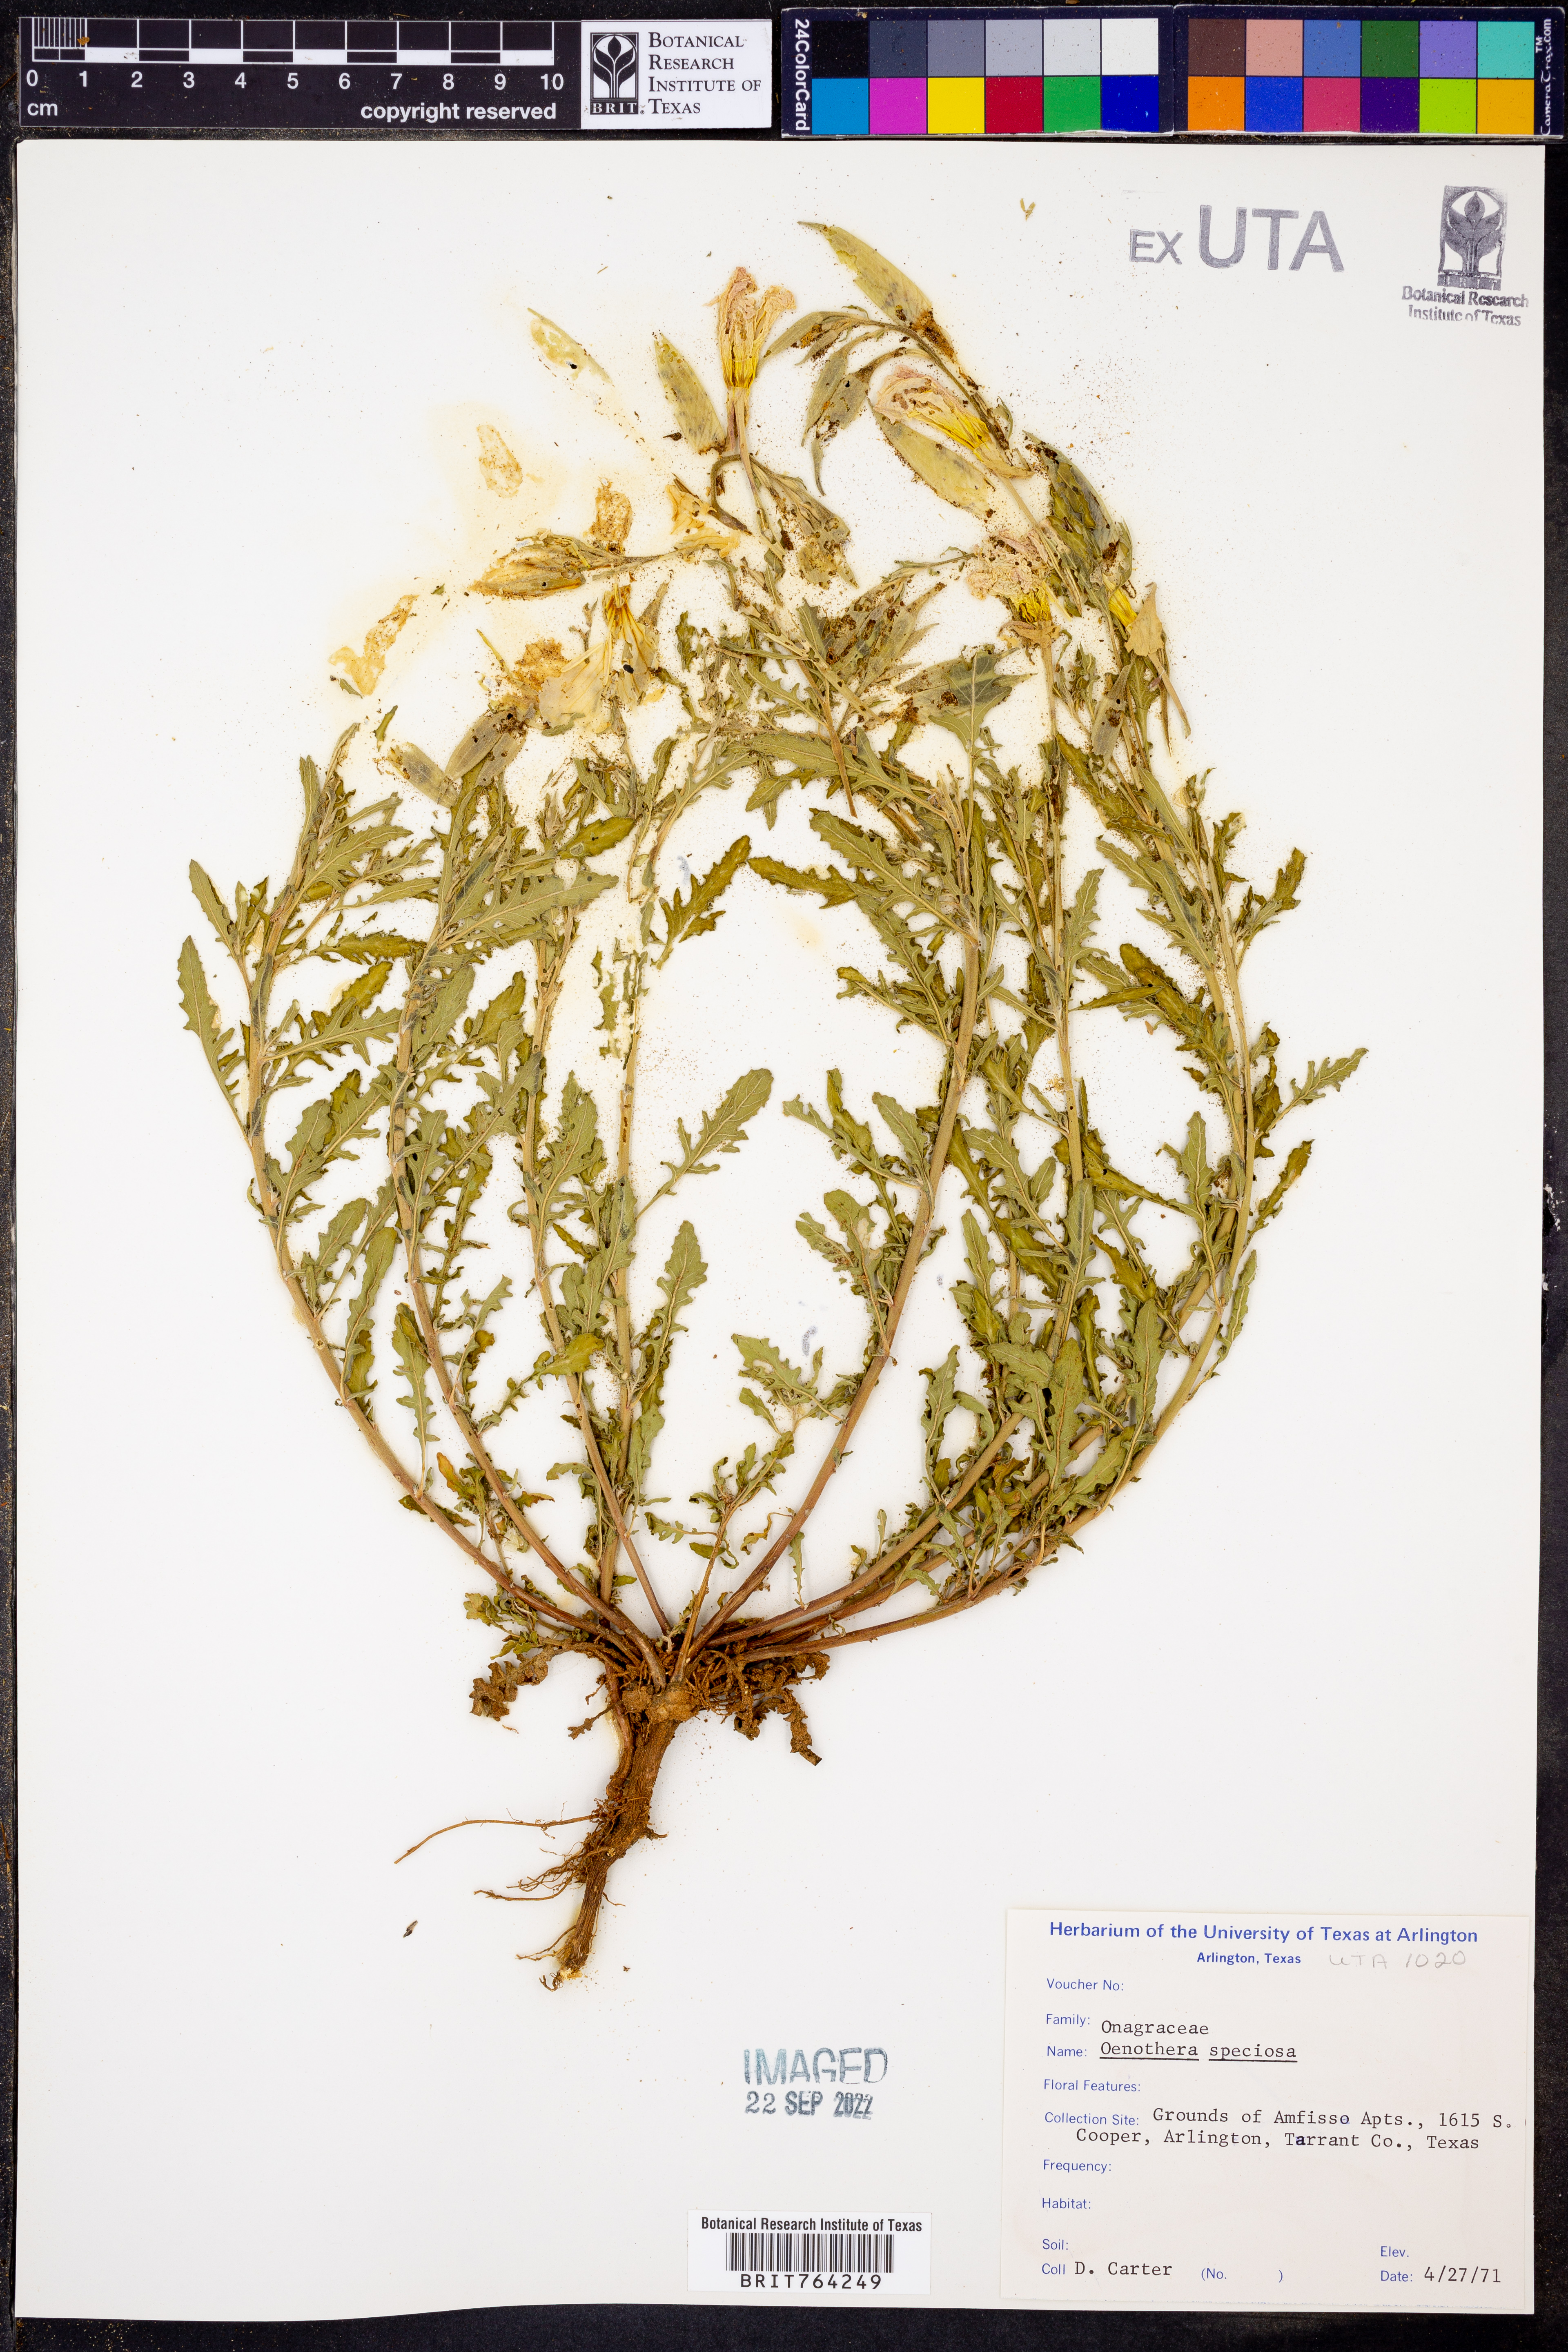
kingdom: Plantae
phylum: Tracheophyta
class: Magnoliopsida
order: Myrtales
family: Onagraceae
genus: Oenothera
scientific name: Oenothera speciosa
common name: White evening-primrose
